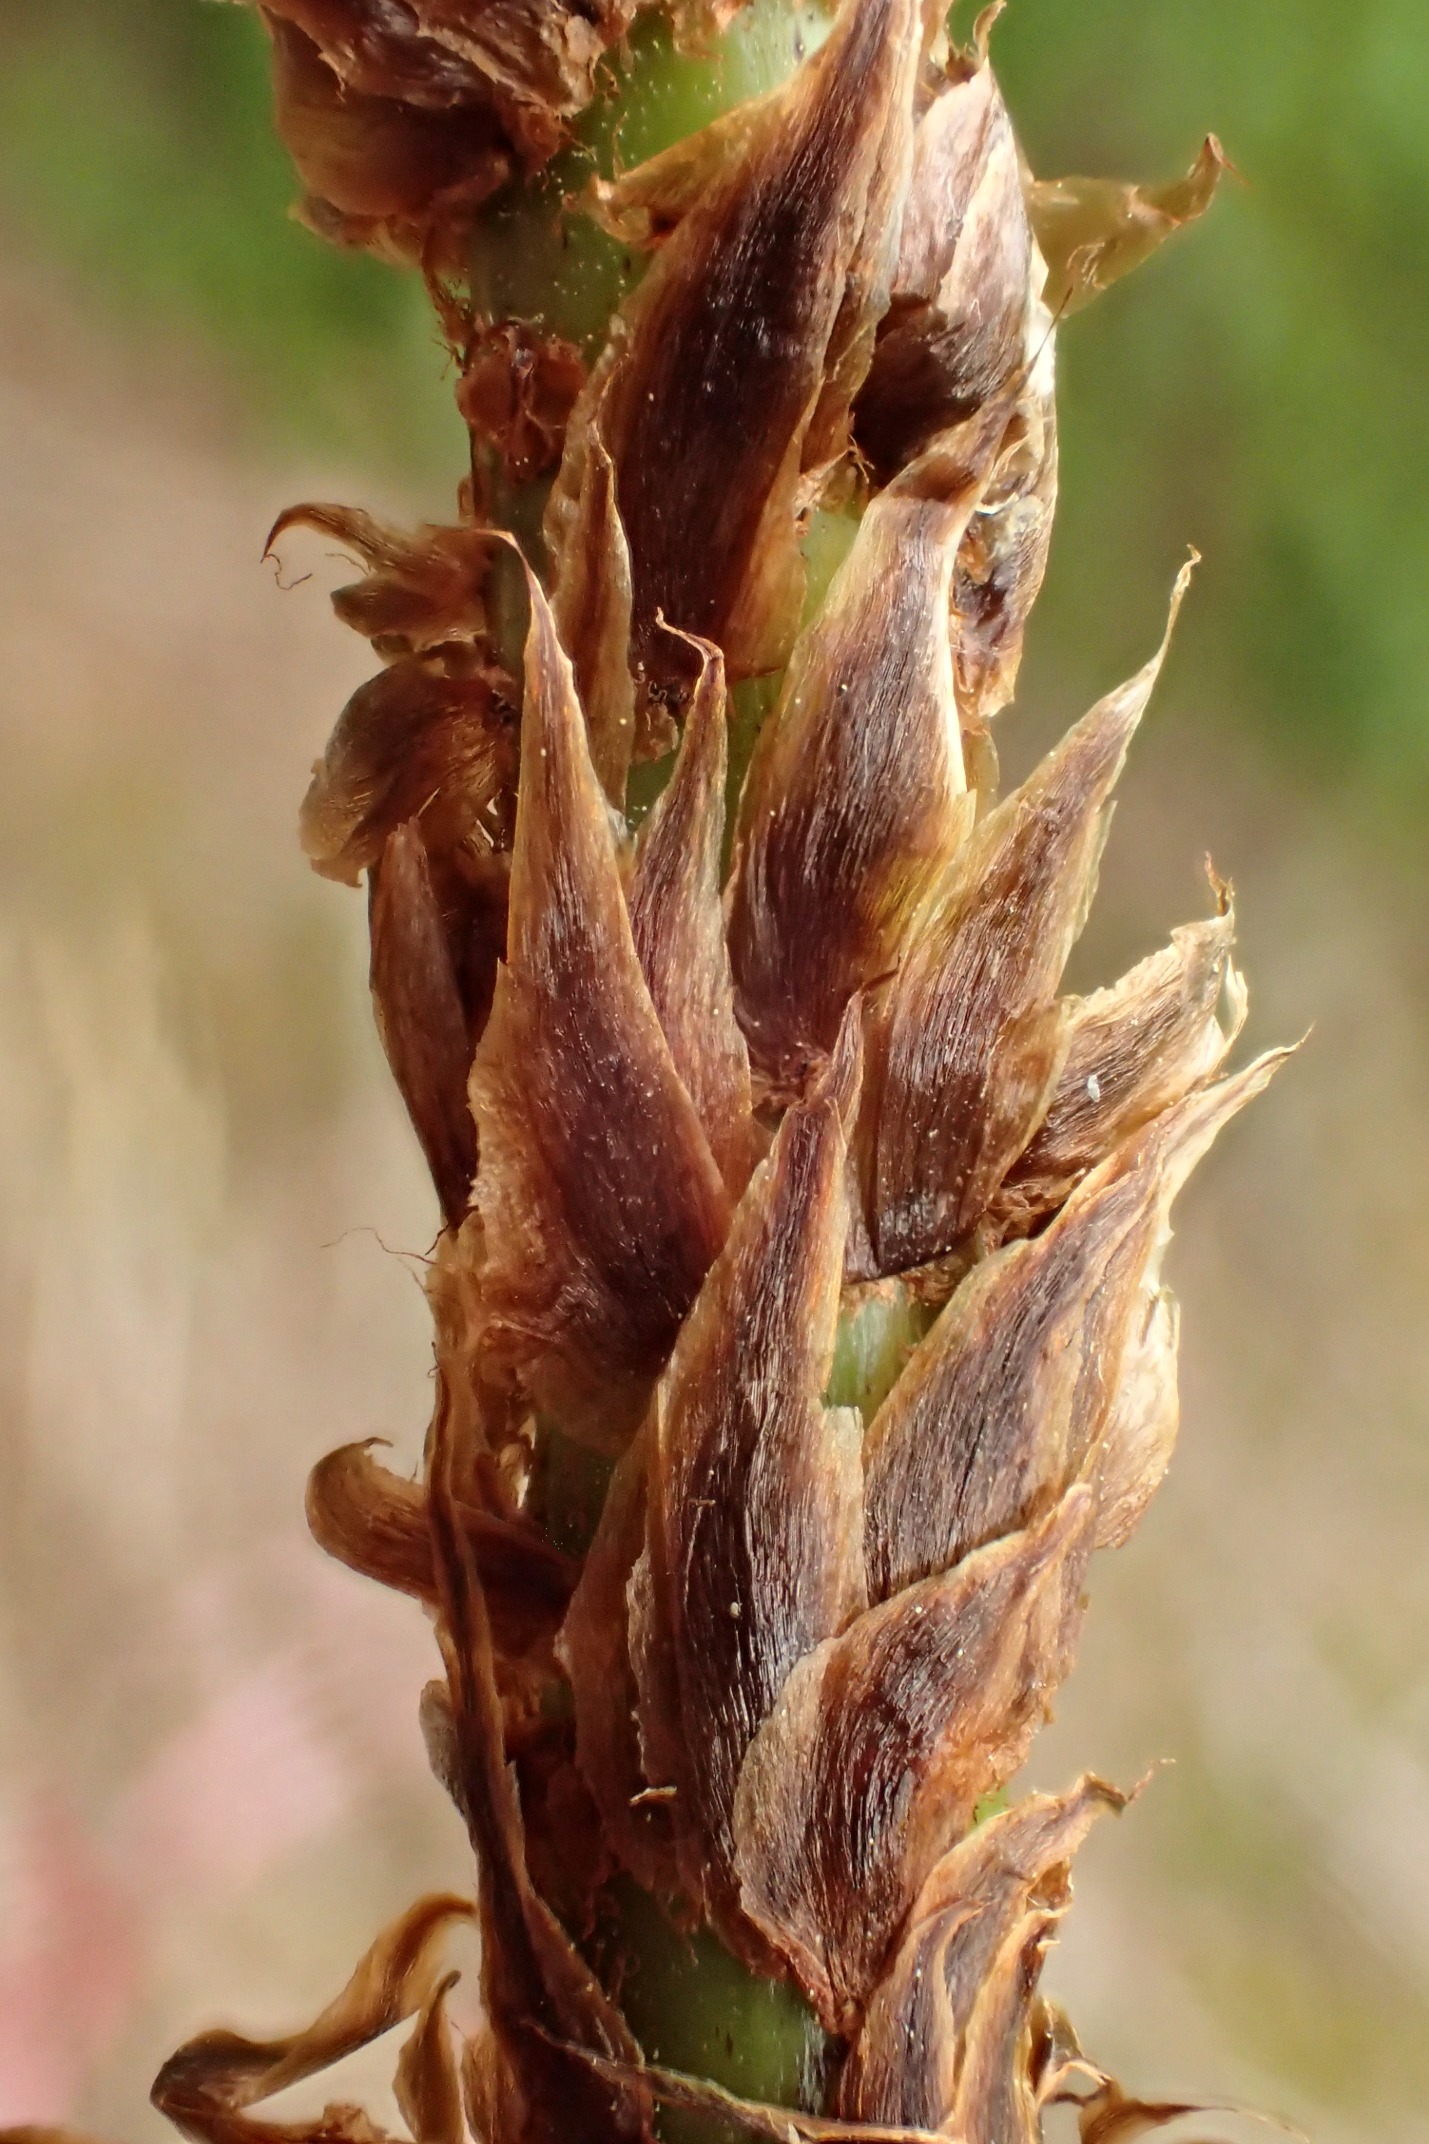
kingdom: Plantae
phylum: Tracheophyta
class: Polypodiopsida
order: Polypodiales
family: Dryopteridaceae
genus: Dryopteris
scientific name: Dryopteris dilatata
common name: Bredbladet mangeløv
